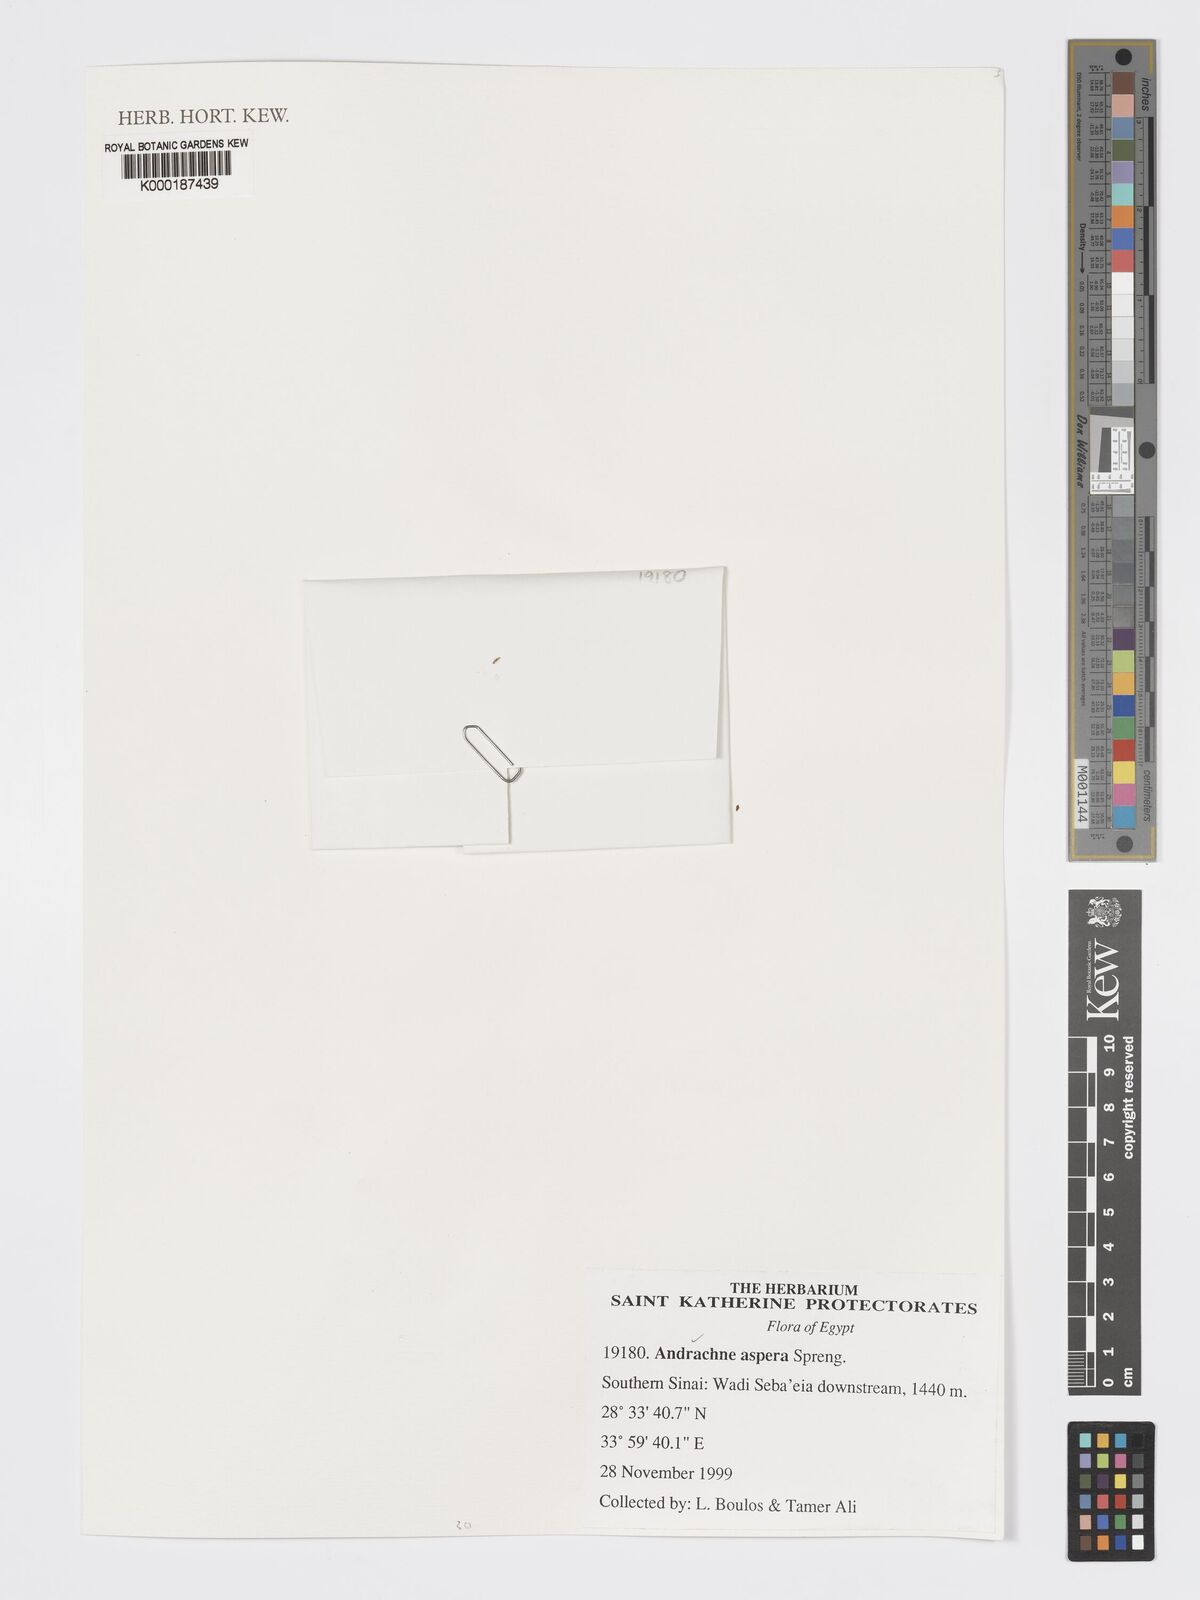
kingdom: Plantae
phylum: Tracheophyta
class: Magnoliopsida
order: Malpighiales
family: Phyllanthaceae
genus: Andrachne
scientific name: Andrachne aspera
